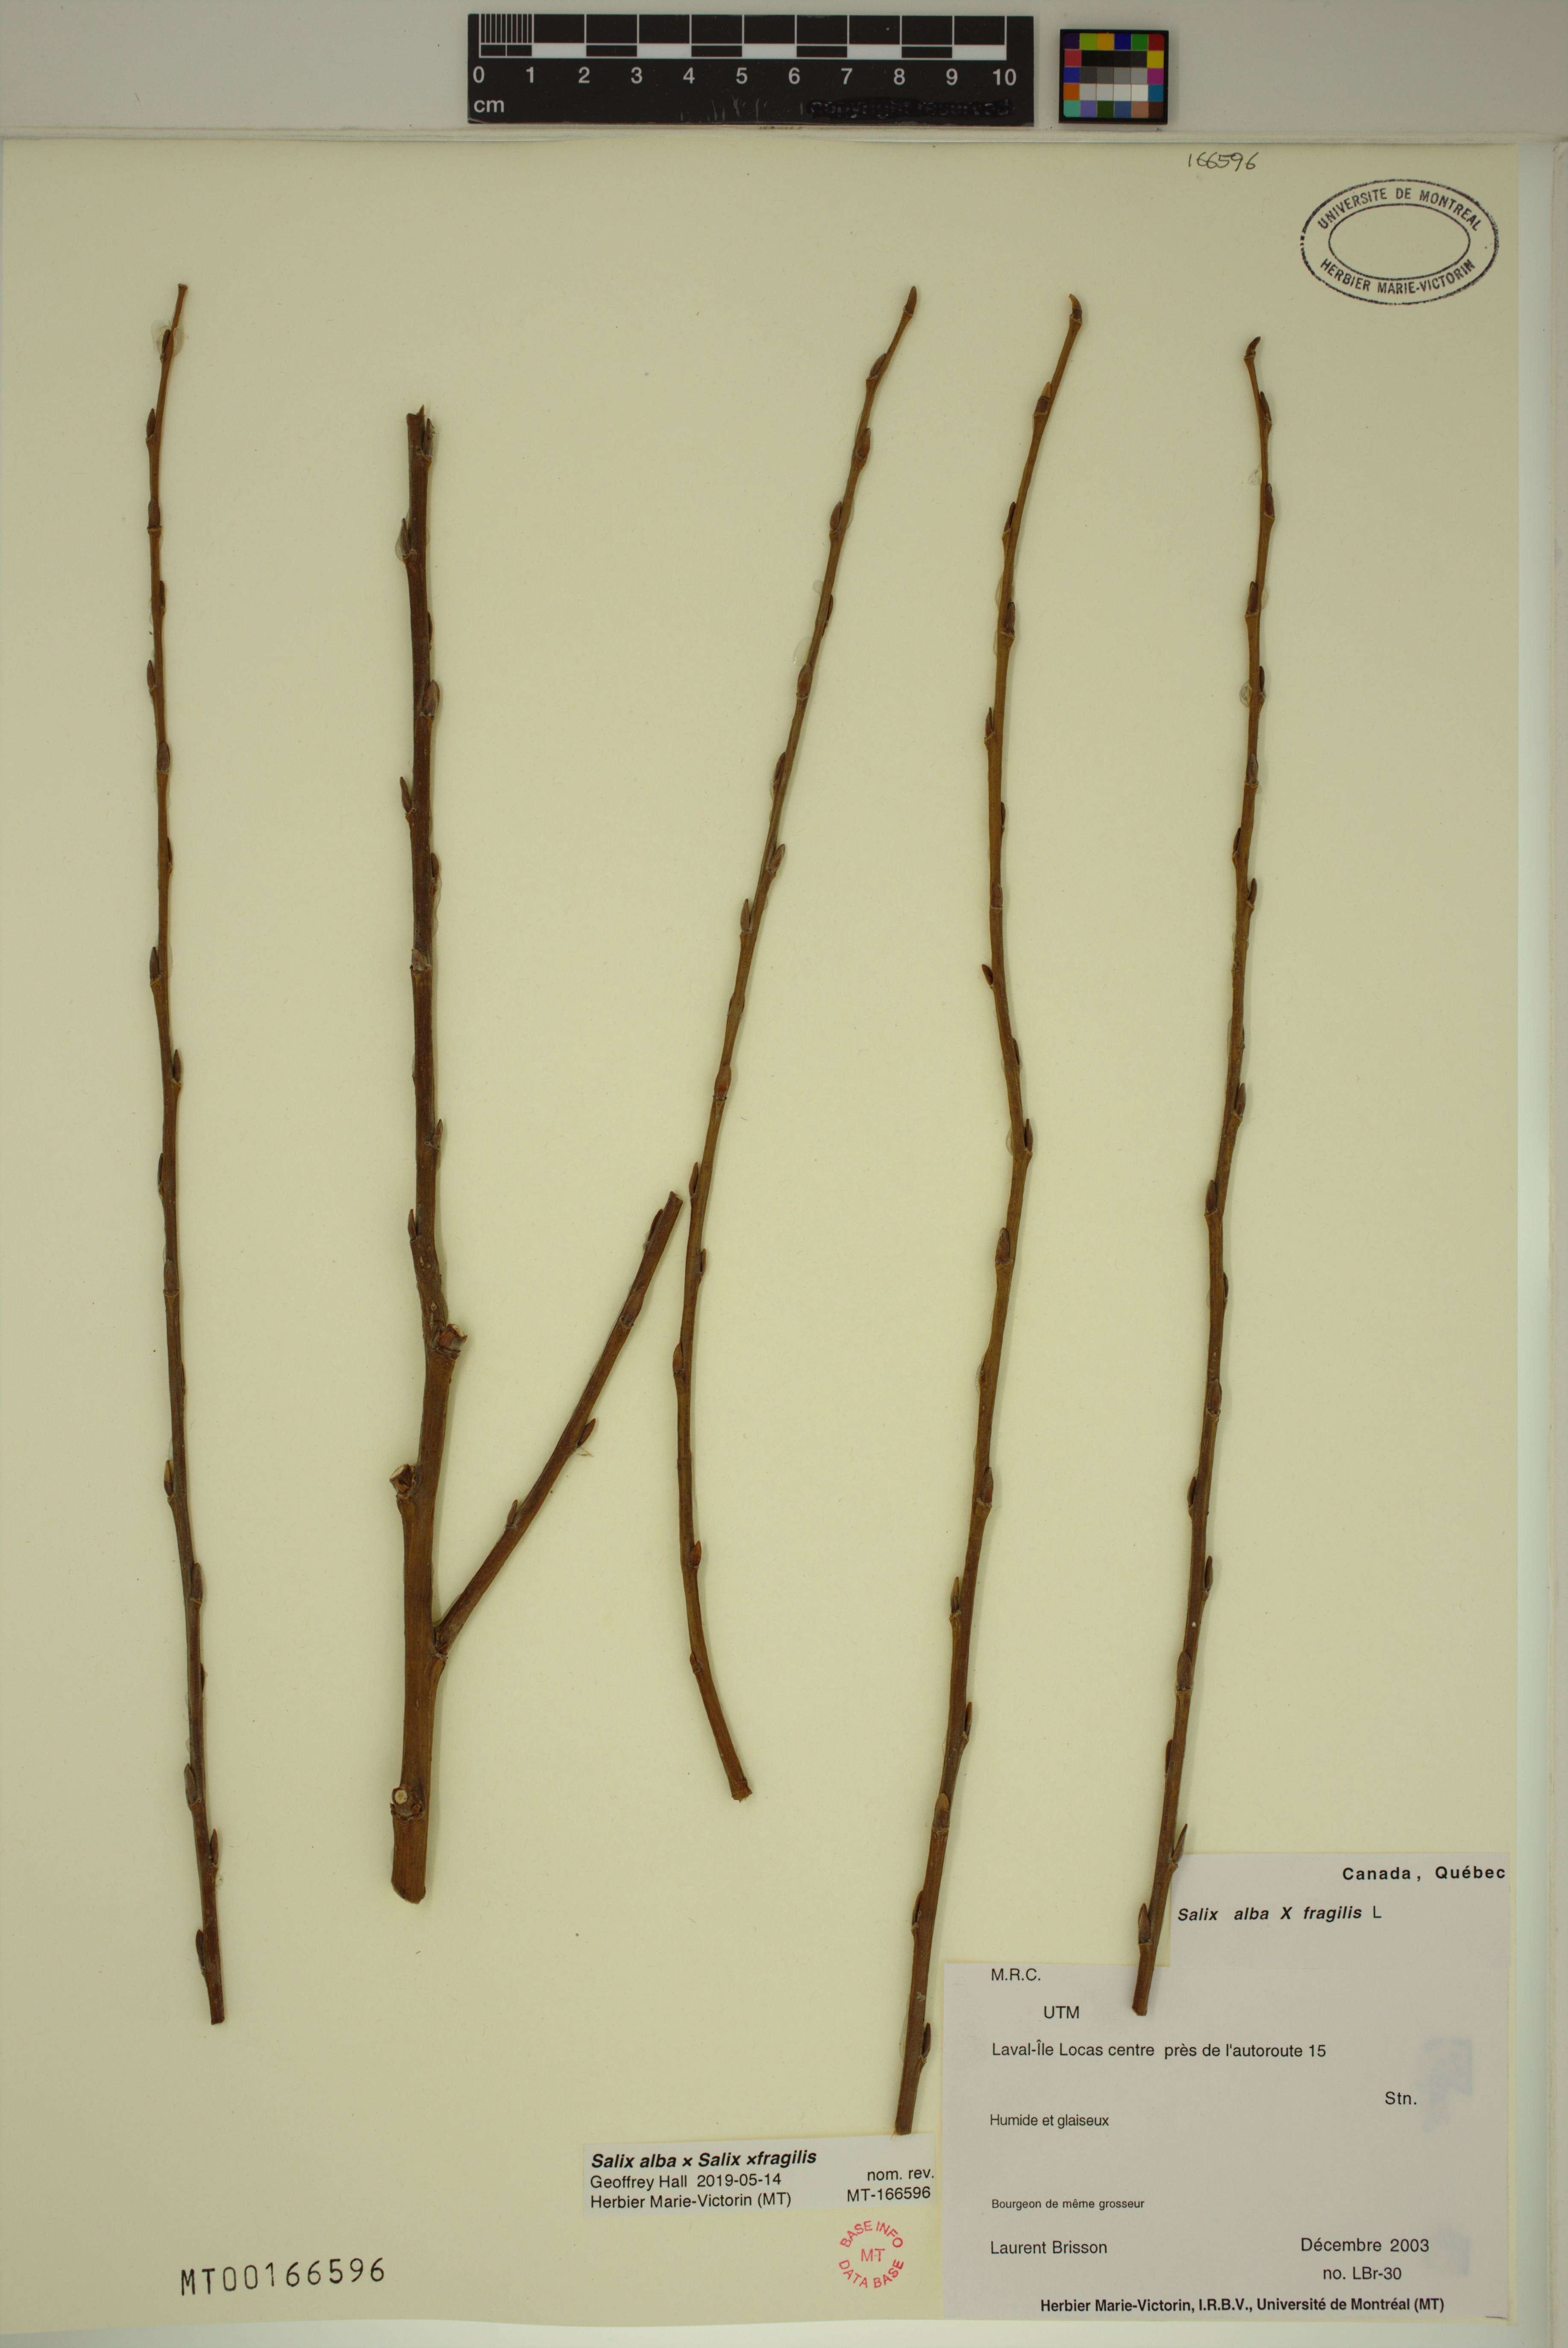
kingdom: Plantae
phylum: Tracheophyta
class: Magnoliopsida
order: Malpighiales
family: Salicaceae
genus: Salix
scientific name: Salix fragilis
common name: Crack willow
